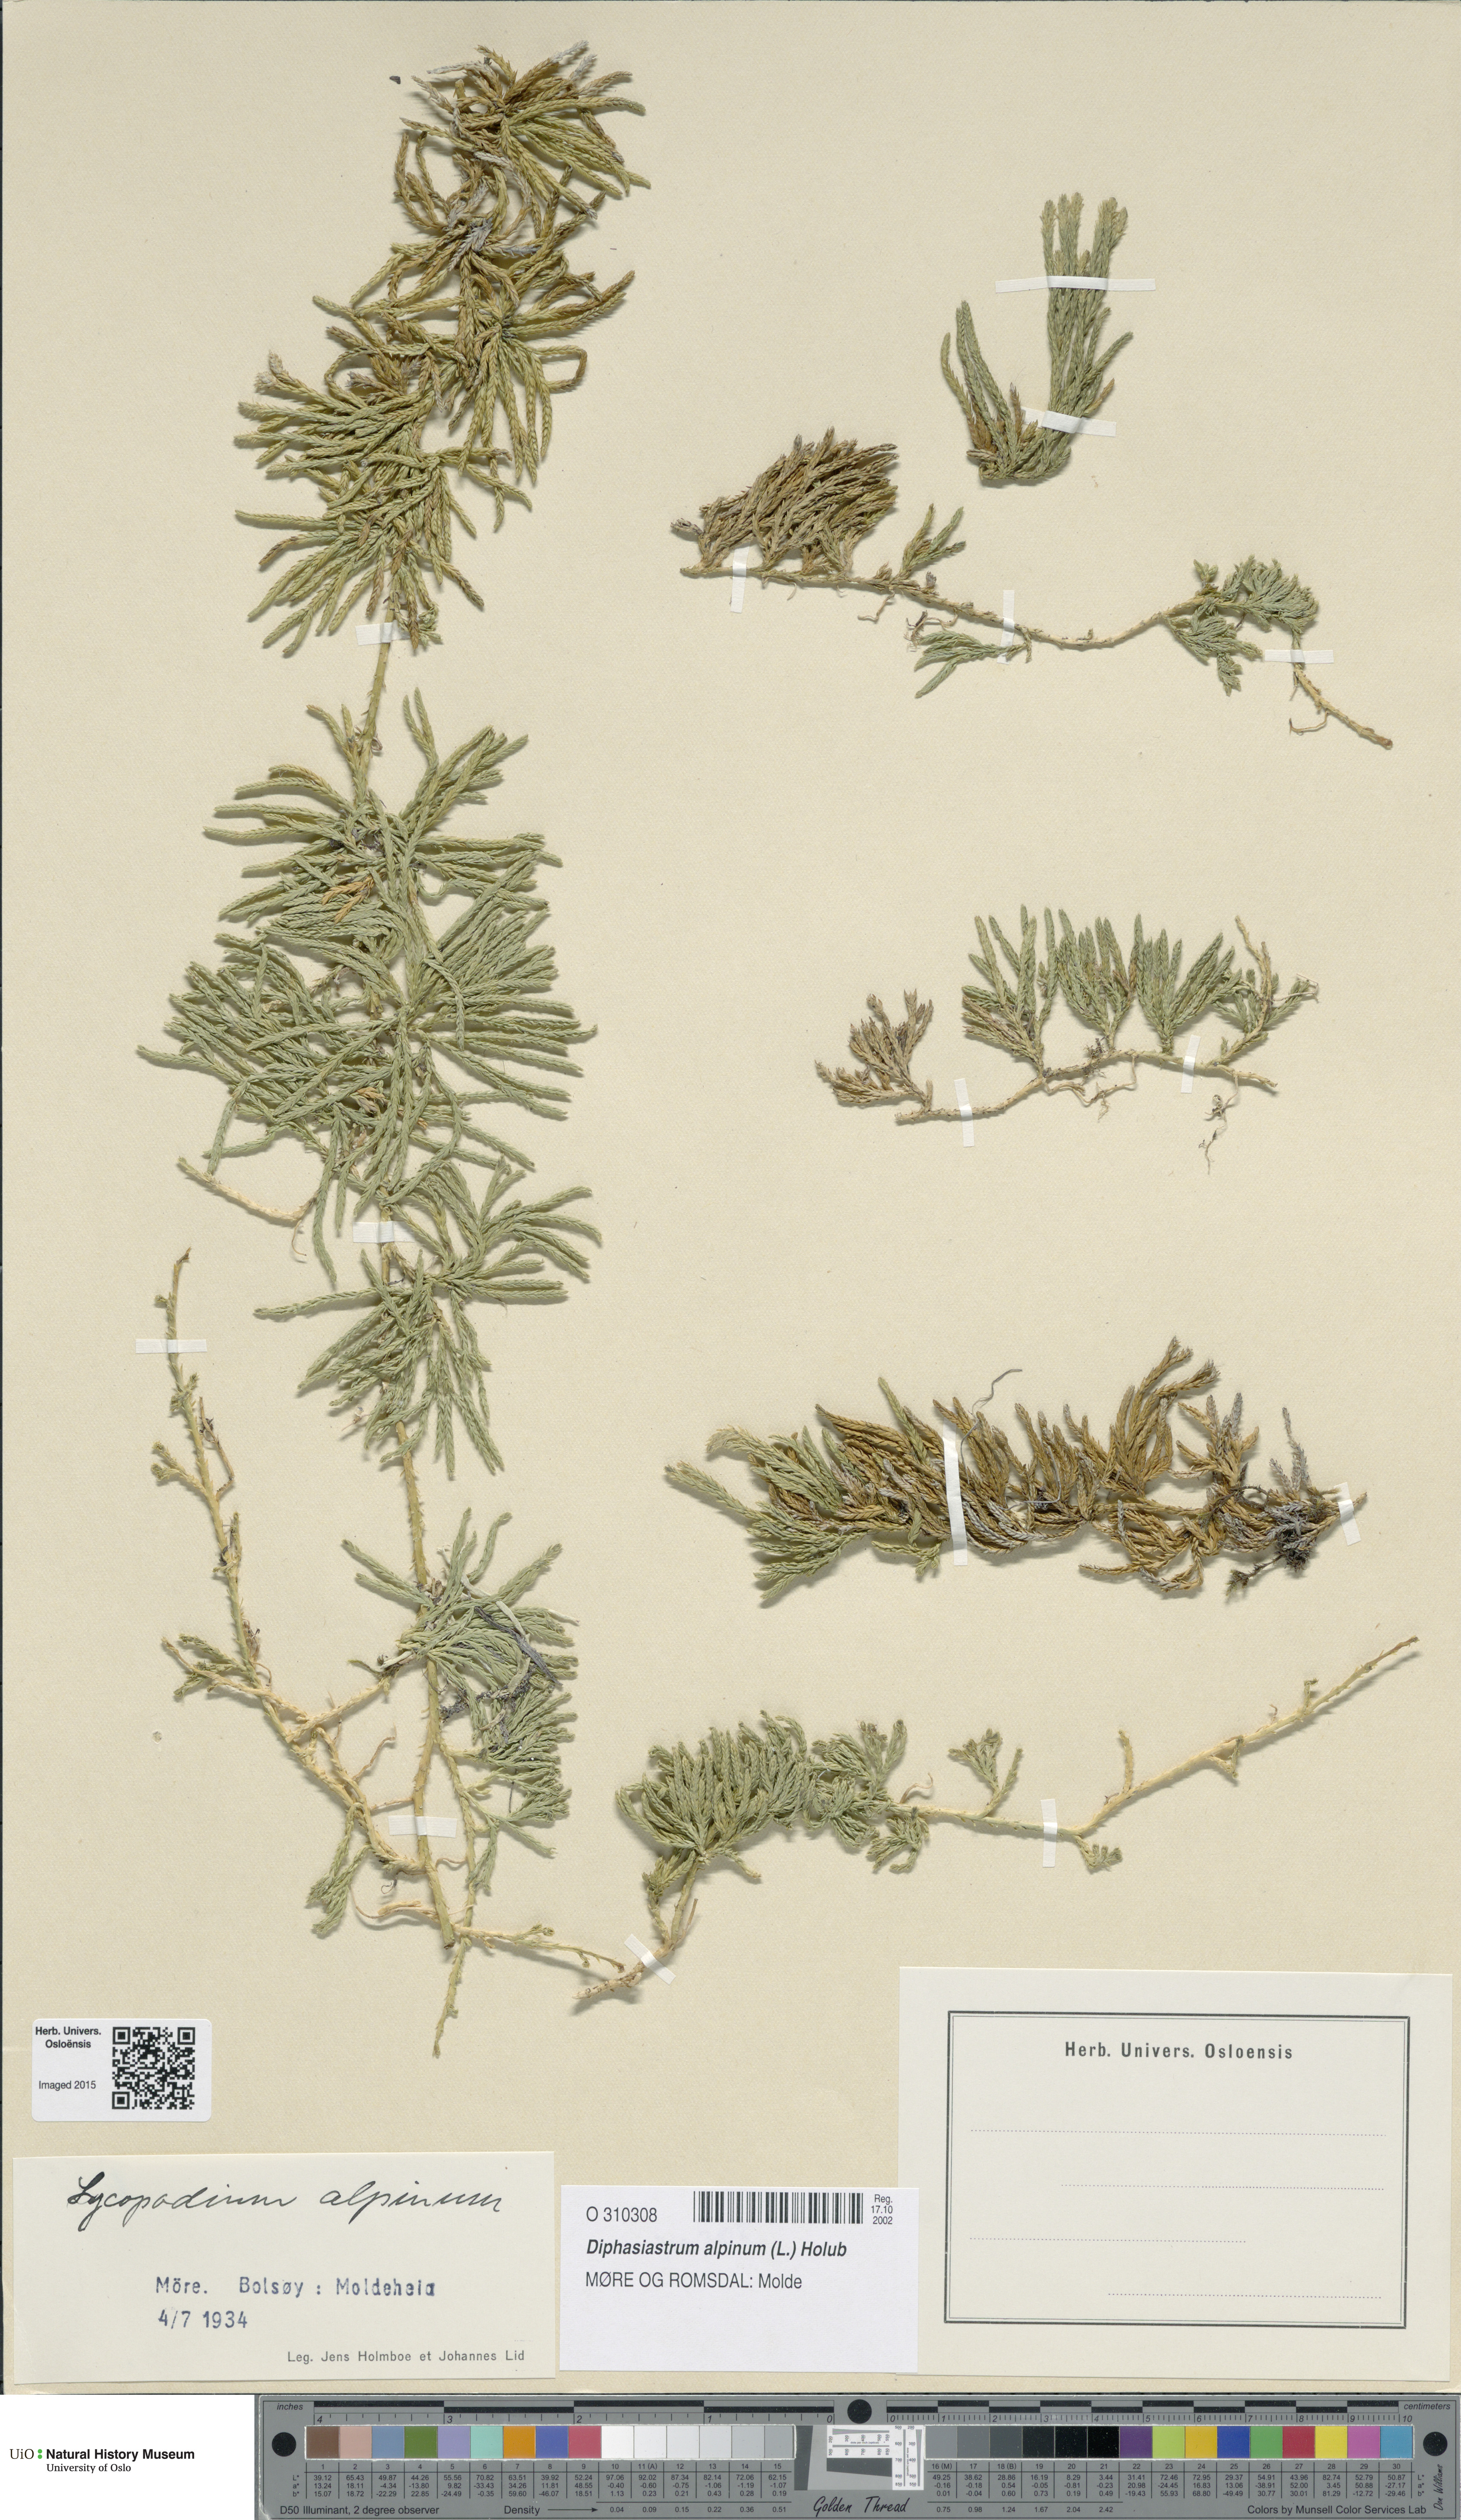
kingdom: Plantae
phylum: Tracheophyta
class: Lycopodiopsida
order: Lycopodiales
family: Lycopodiaceae
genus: Diphasiastrum
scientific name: Diphasiastrum alpinum
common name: Alpine clubmoss
